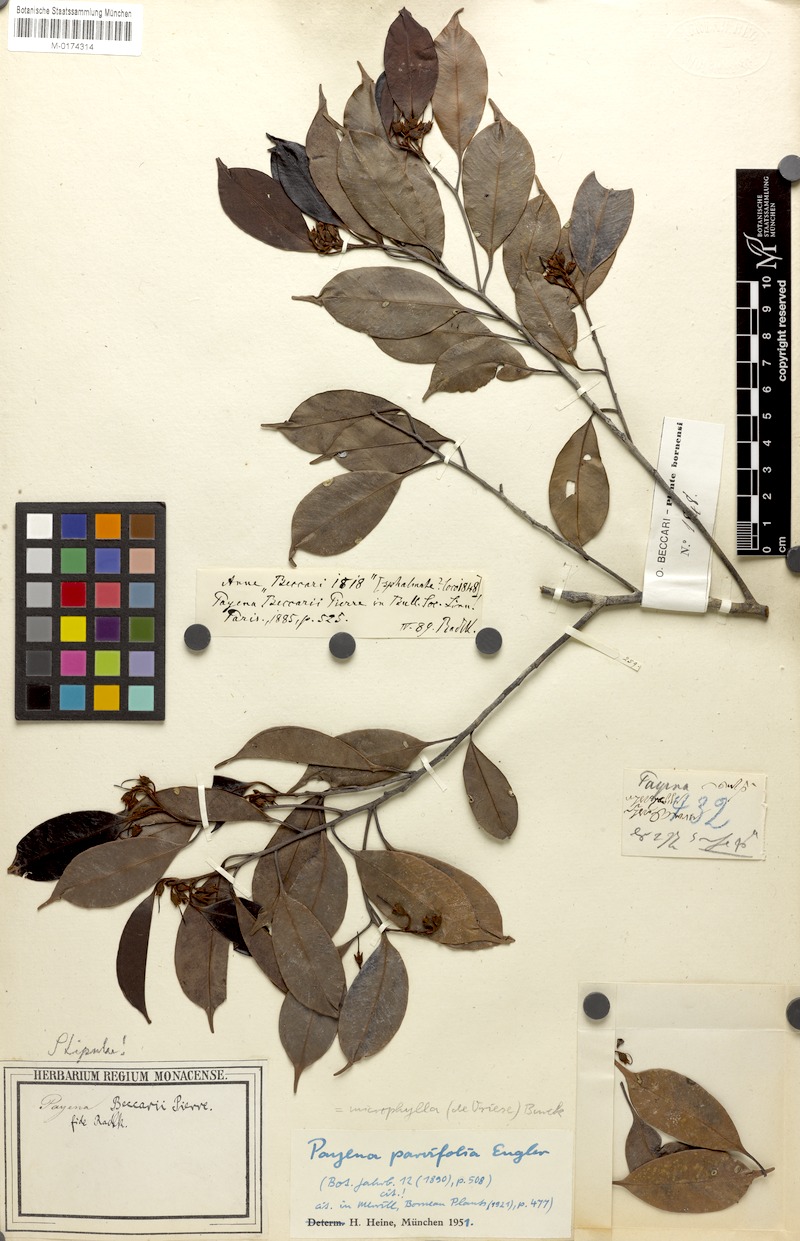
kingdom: Plantae
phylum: Tracheophyta
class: Magnoliopsida
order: Ericales
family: Sapotaceae
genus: Payena
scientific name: Payena microphylla
